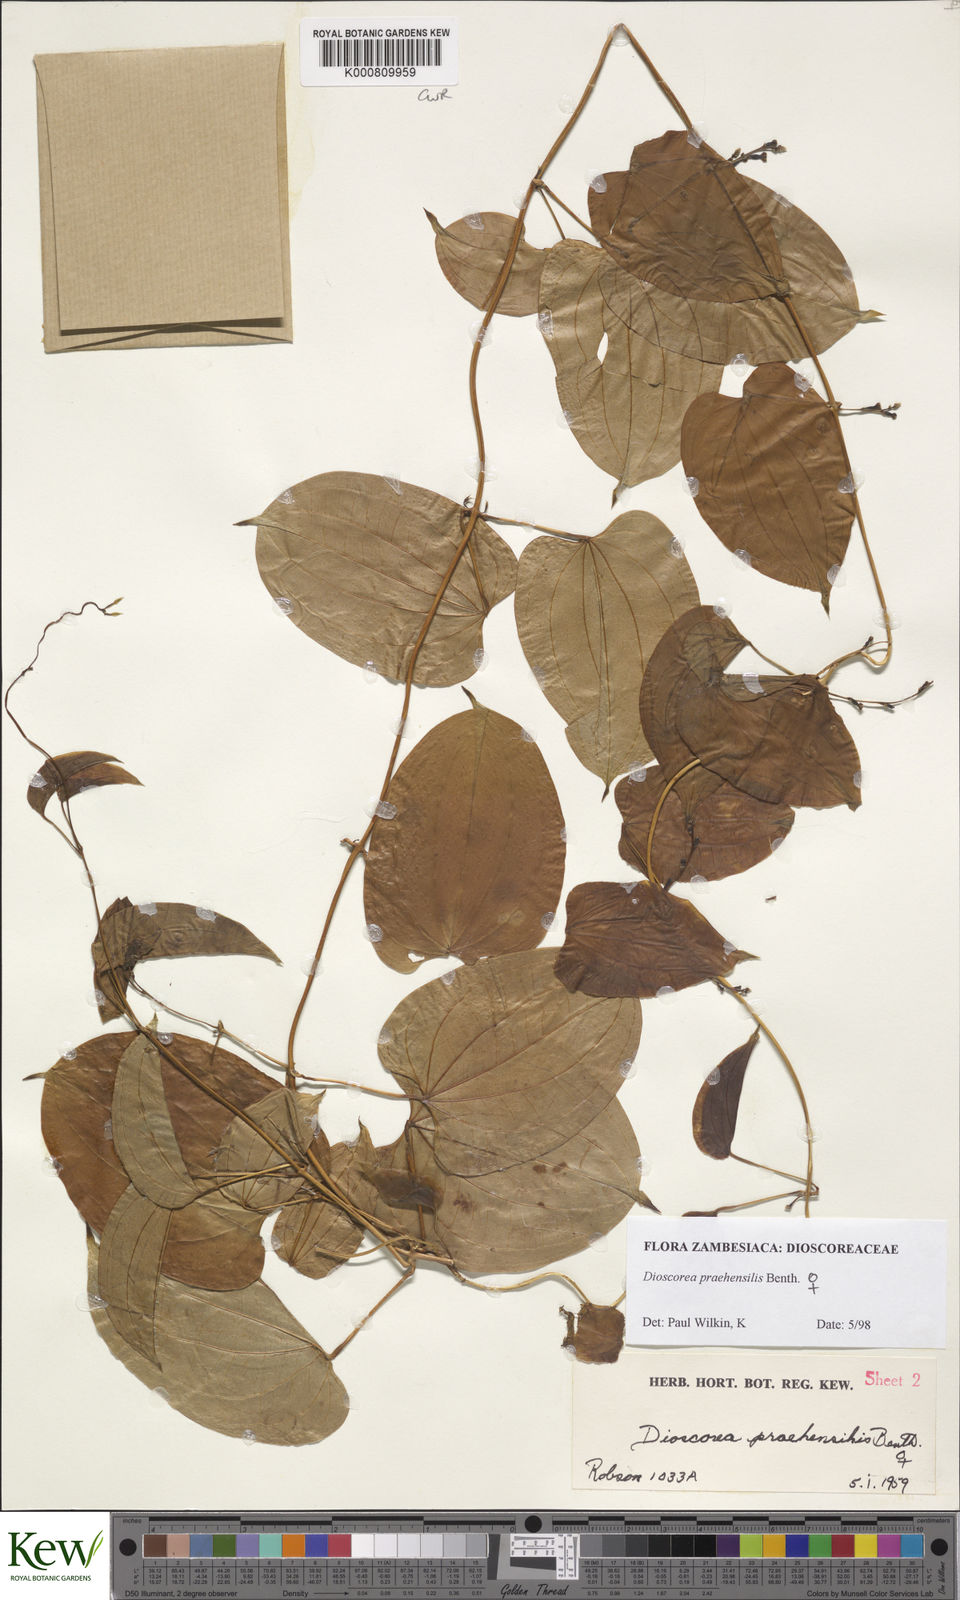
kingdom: Plantae
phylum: Tracheophyta
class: Liliopsida
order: Dioscoreales
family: Dioscoreaceae
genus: Dioscorea
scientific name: Dioscorea praehensilis
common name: Bush yam
